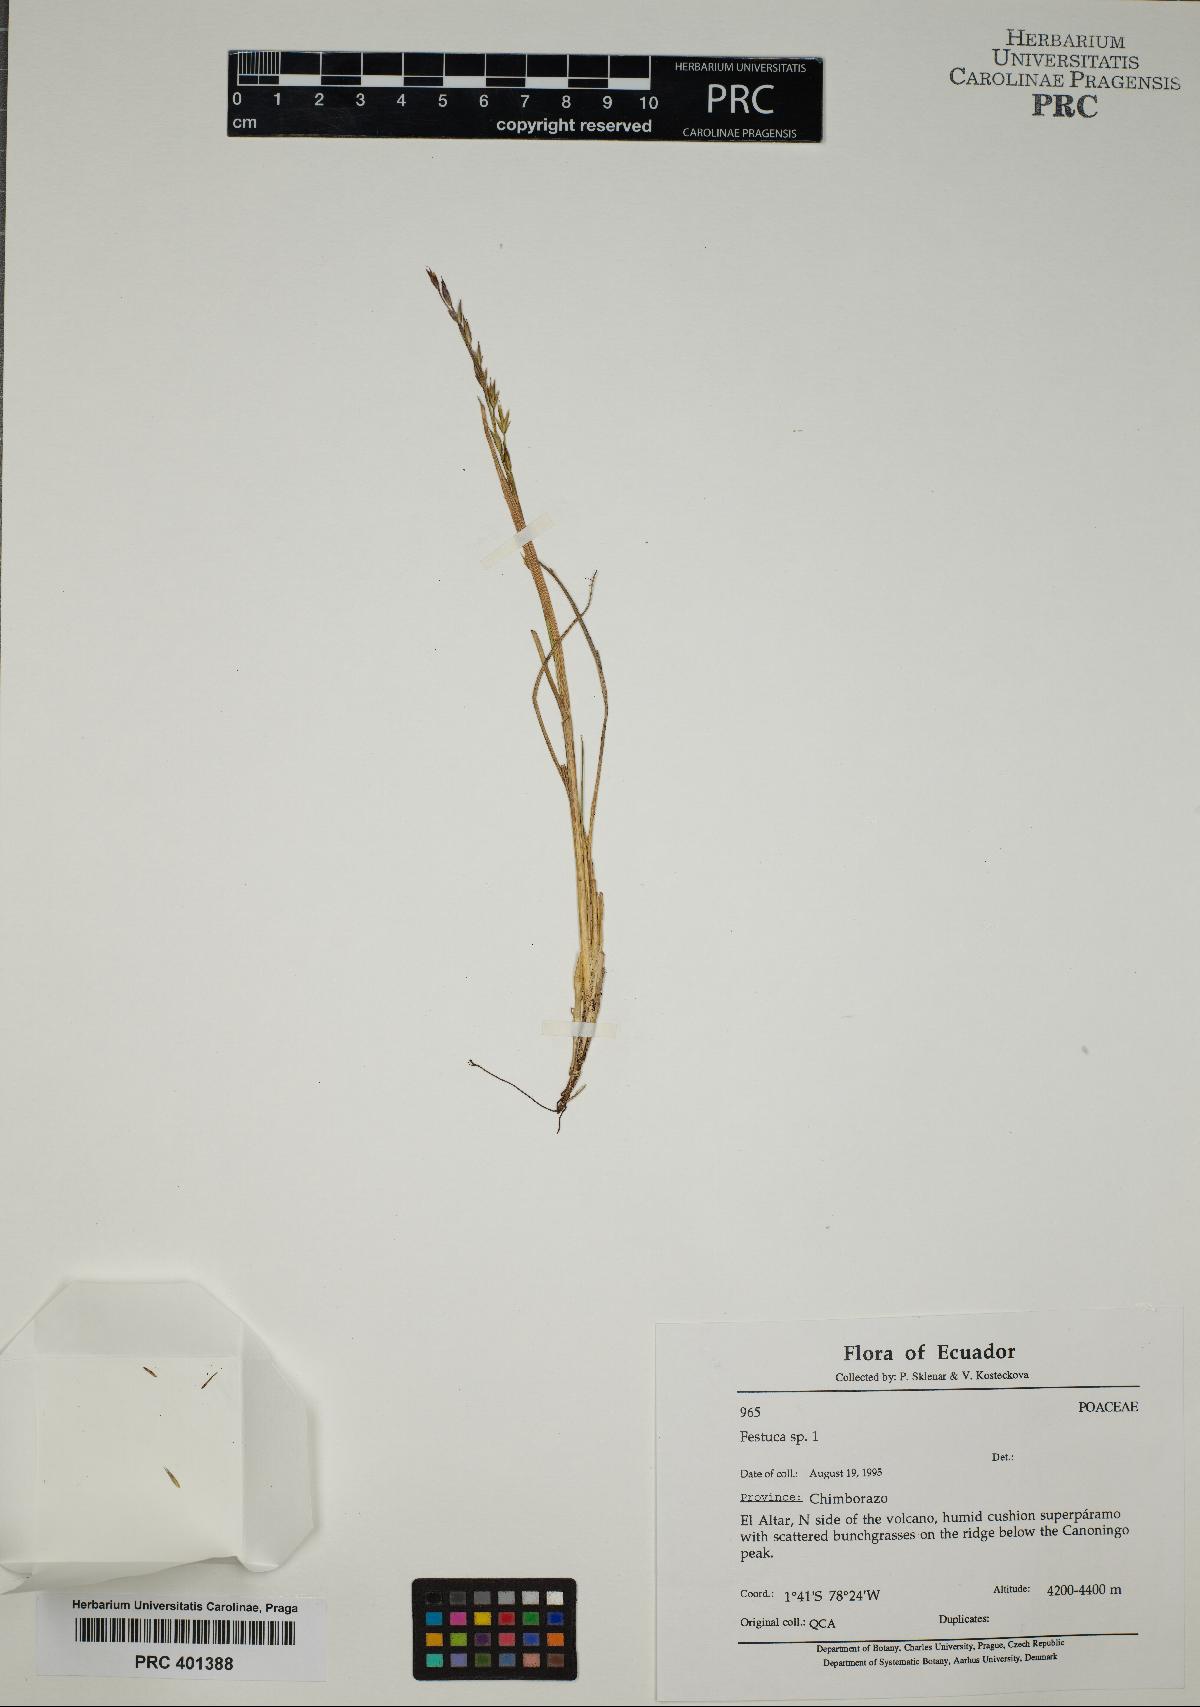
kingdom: Plantae
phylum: Tracheophyta
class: Liliopsida
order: Poales
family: Poaceae
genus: Festuca
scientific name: Festuca
